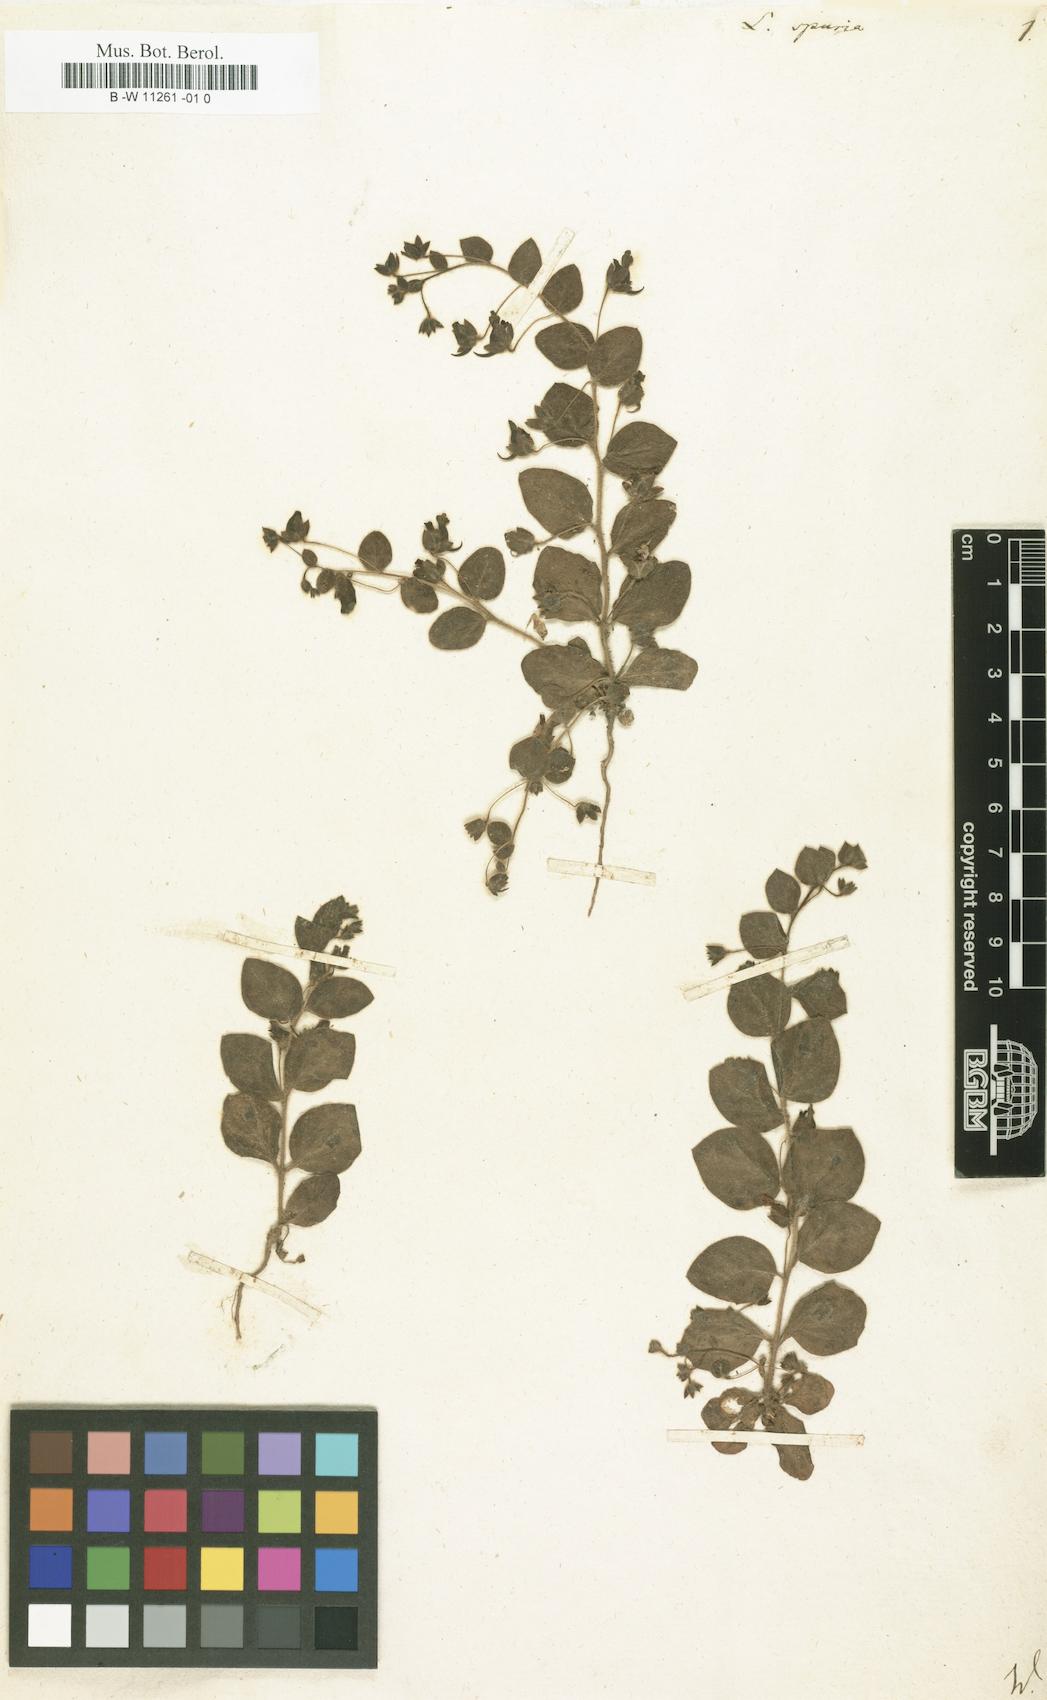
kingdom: Plantae
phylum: Tracheophyta
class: Magnoliopsida
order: Lamiales
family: Plantaginaceae
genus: Kickxia
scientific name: Kickxia spuria
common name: Round-leaved fluellen
